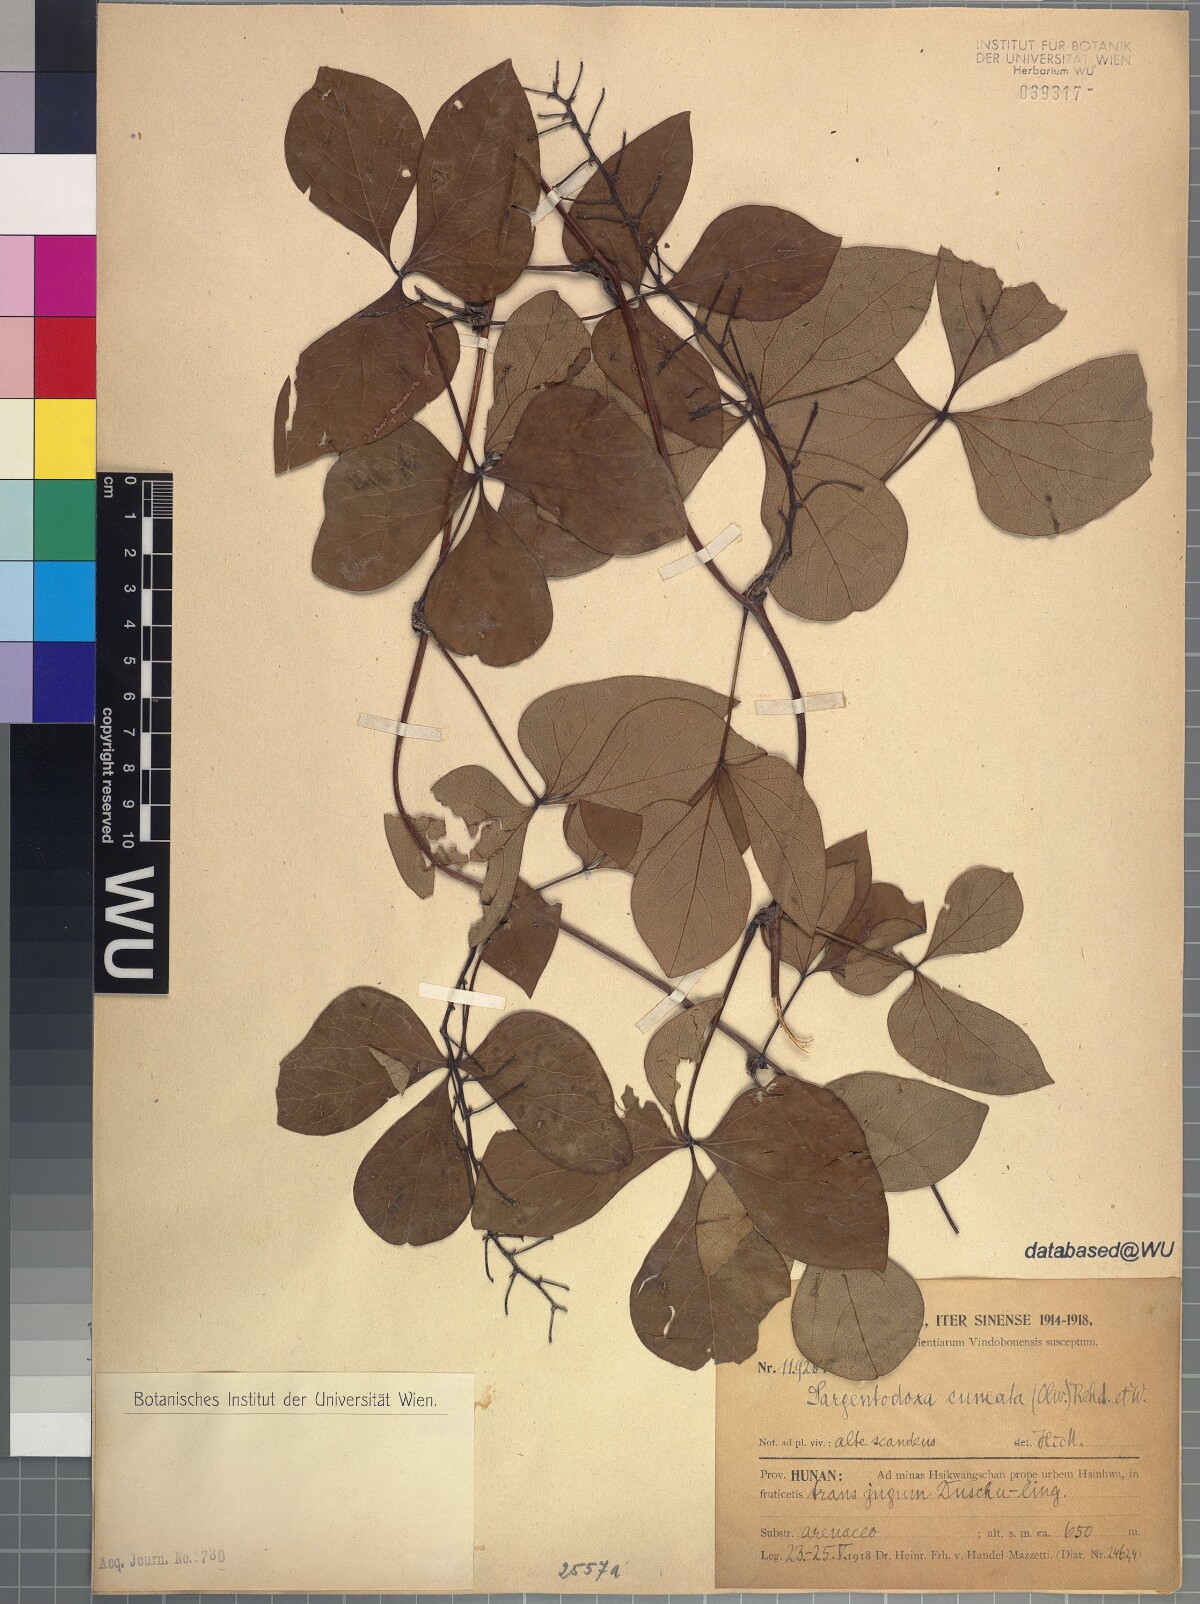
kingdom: Plantae
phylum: Tracheophyta
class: Magnoliopsida
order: Ranunculales
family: Lardizabalaceae
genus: Sargentodoxa
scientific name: Sargentodoxa cuneata
